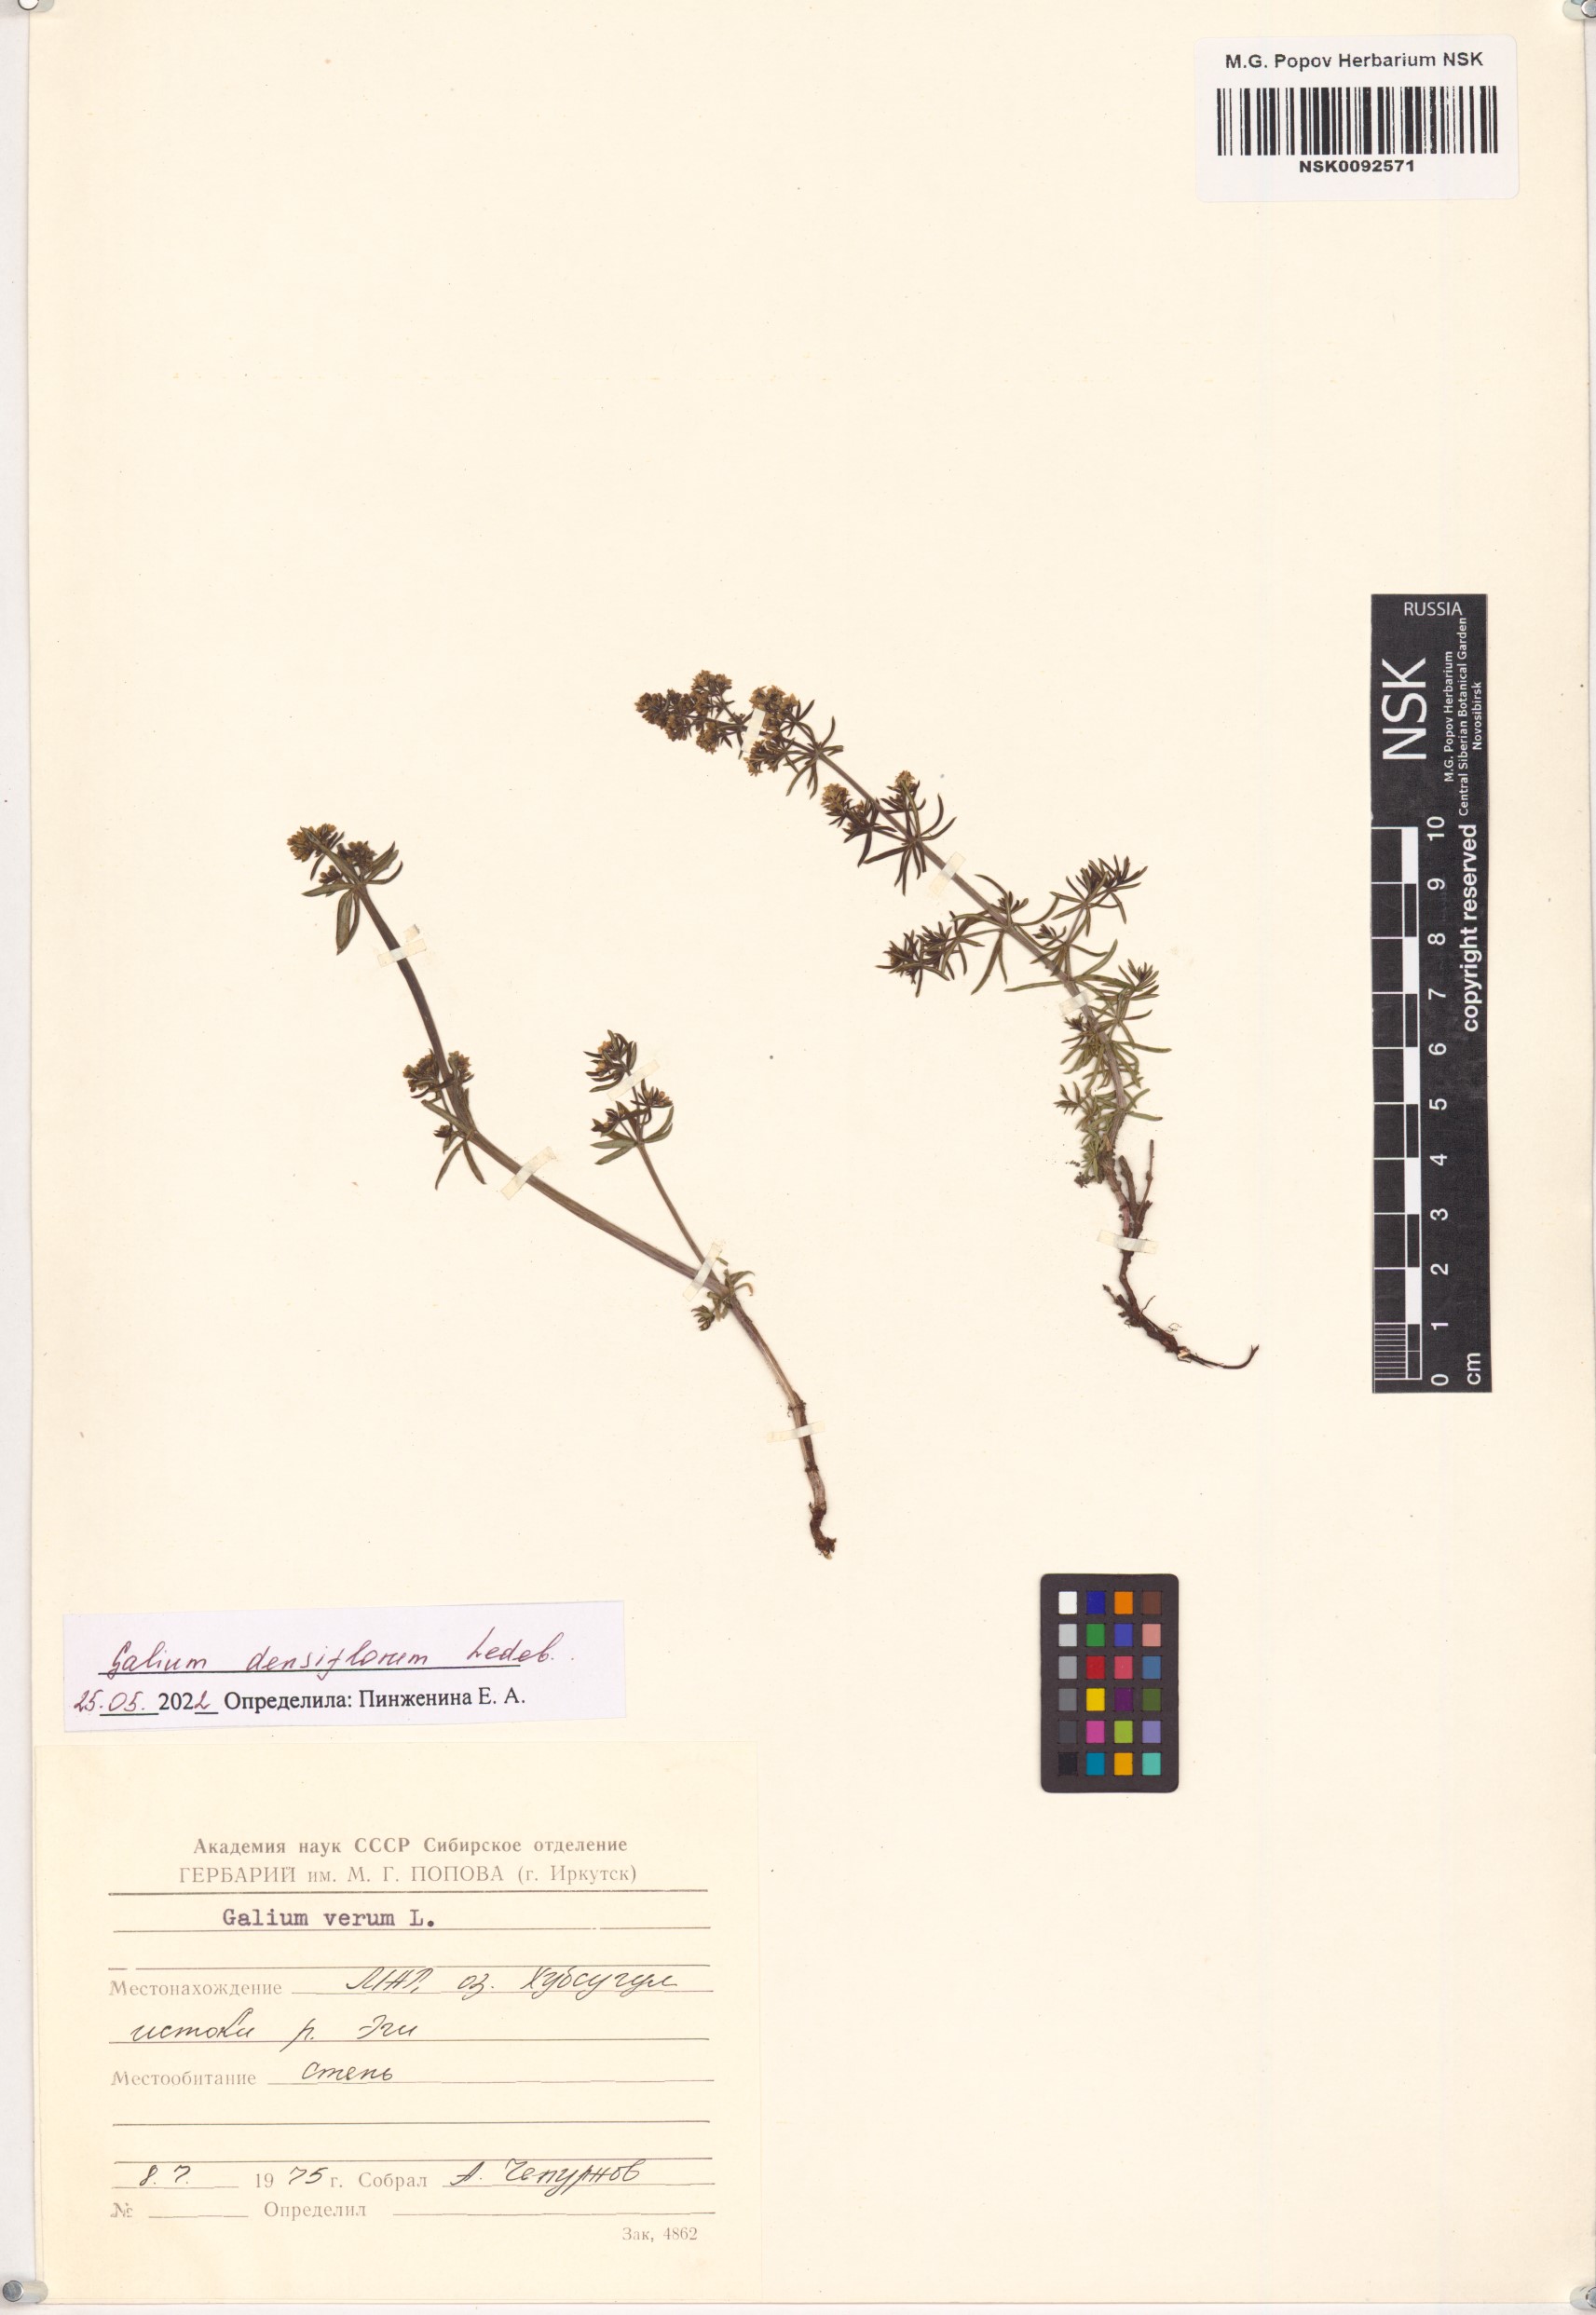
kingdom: Plantae
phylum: Tracheophyta
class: Magnoliopsida
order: Gentianales
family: Rubiaceae
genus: Galium
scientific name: Galium densiflorum
